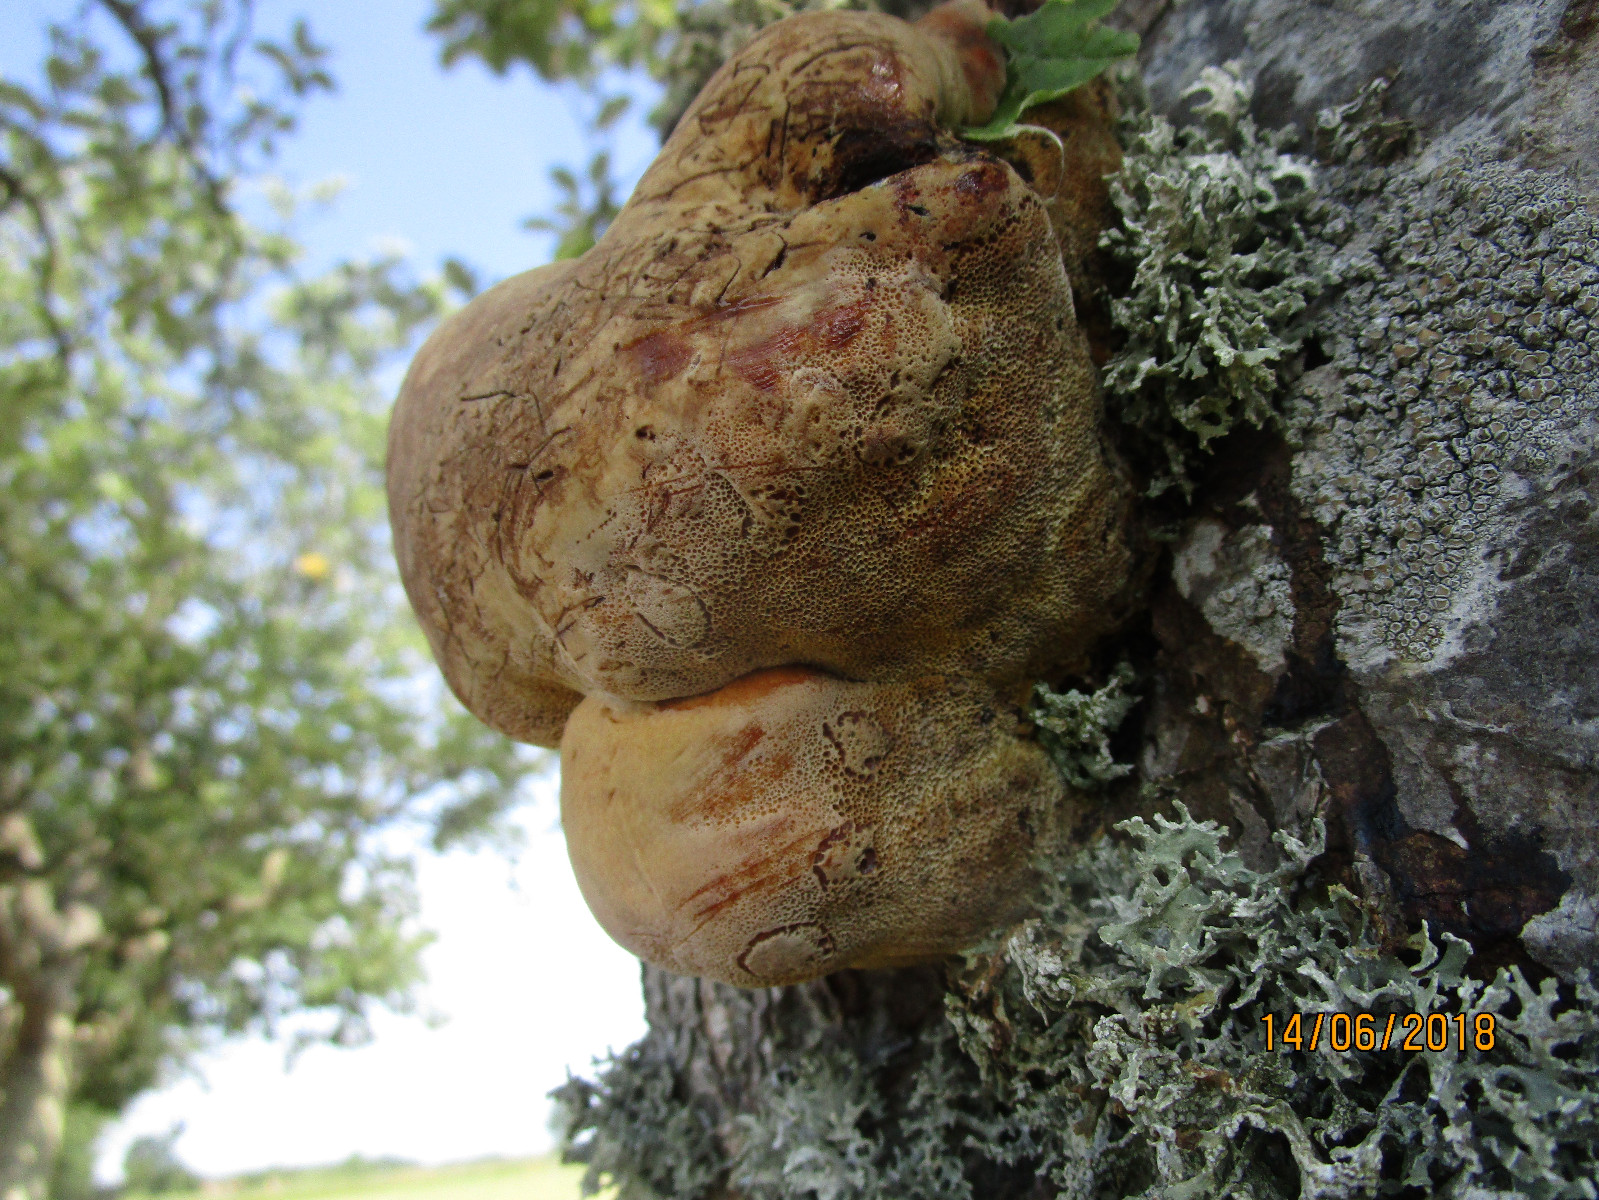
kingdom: Fungi
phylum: Basidiomycota
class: Agaricomycetes
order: Hymenochaetales
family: Hymenochaetaceae
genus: Inonotus
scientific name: Inonotus hispidus
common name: børstehåret spejlporesvamp
